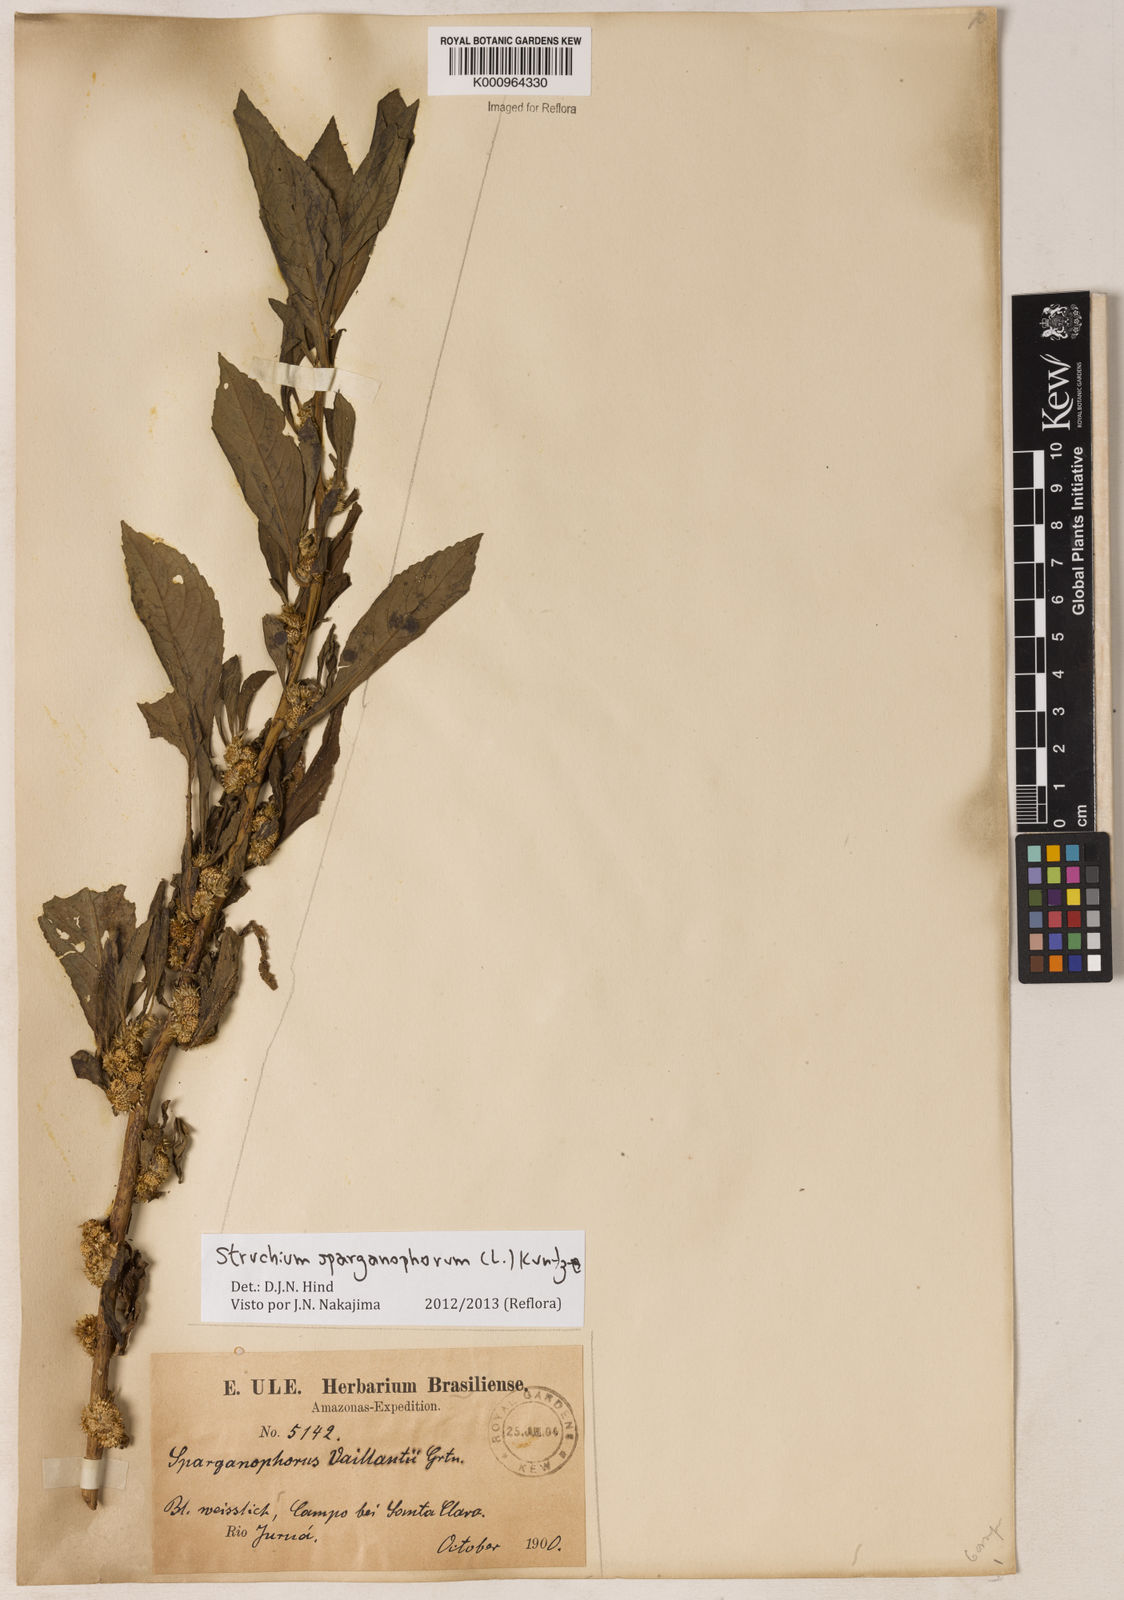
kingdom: Plantae
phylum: Tracheophyta
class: Magnoliopsida
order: Asterales
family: Asteraceae
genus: Struchium
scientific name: Struchium sparganophorum
